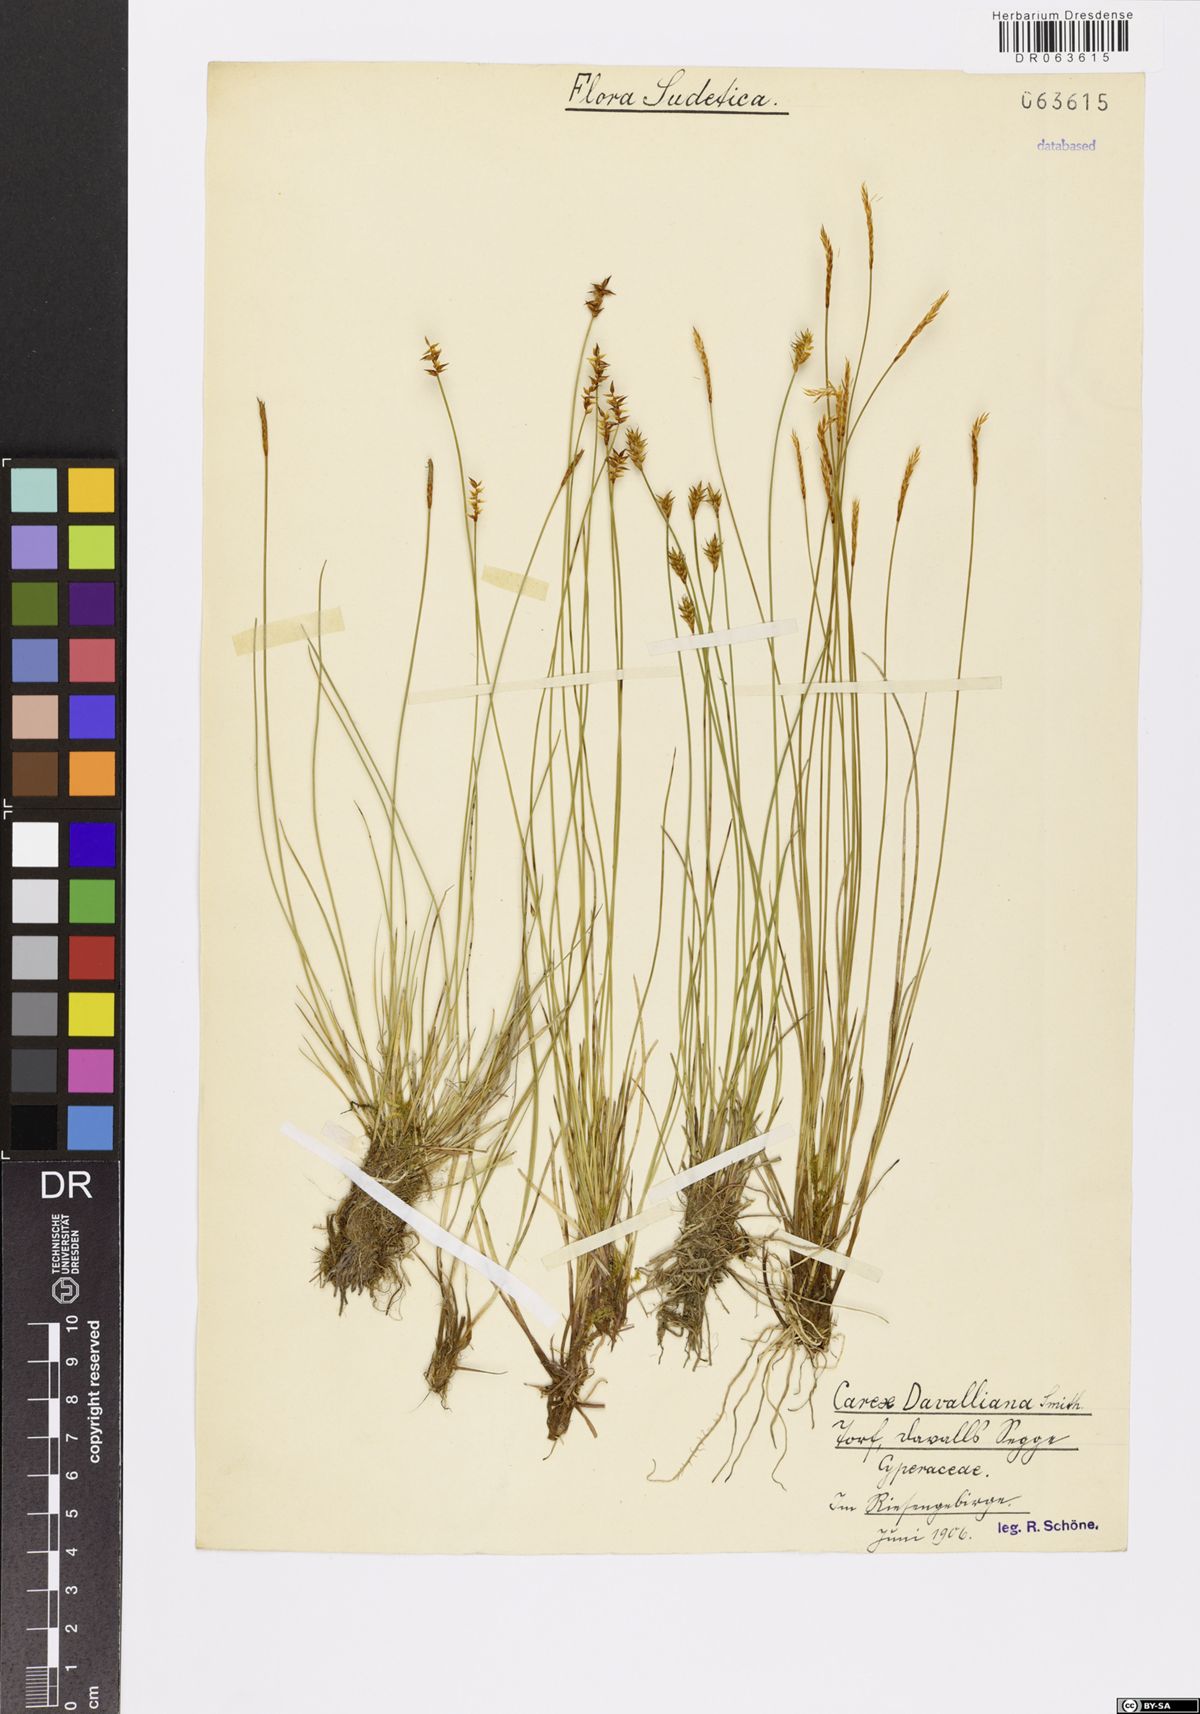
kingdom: Plantae
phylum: Tracheophyta
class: Liliopsida
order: Poales
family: Cyperaceae
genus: Carex
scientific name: Carex davalliana
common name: Davall's sedge
